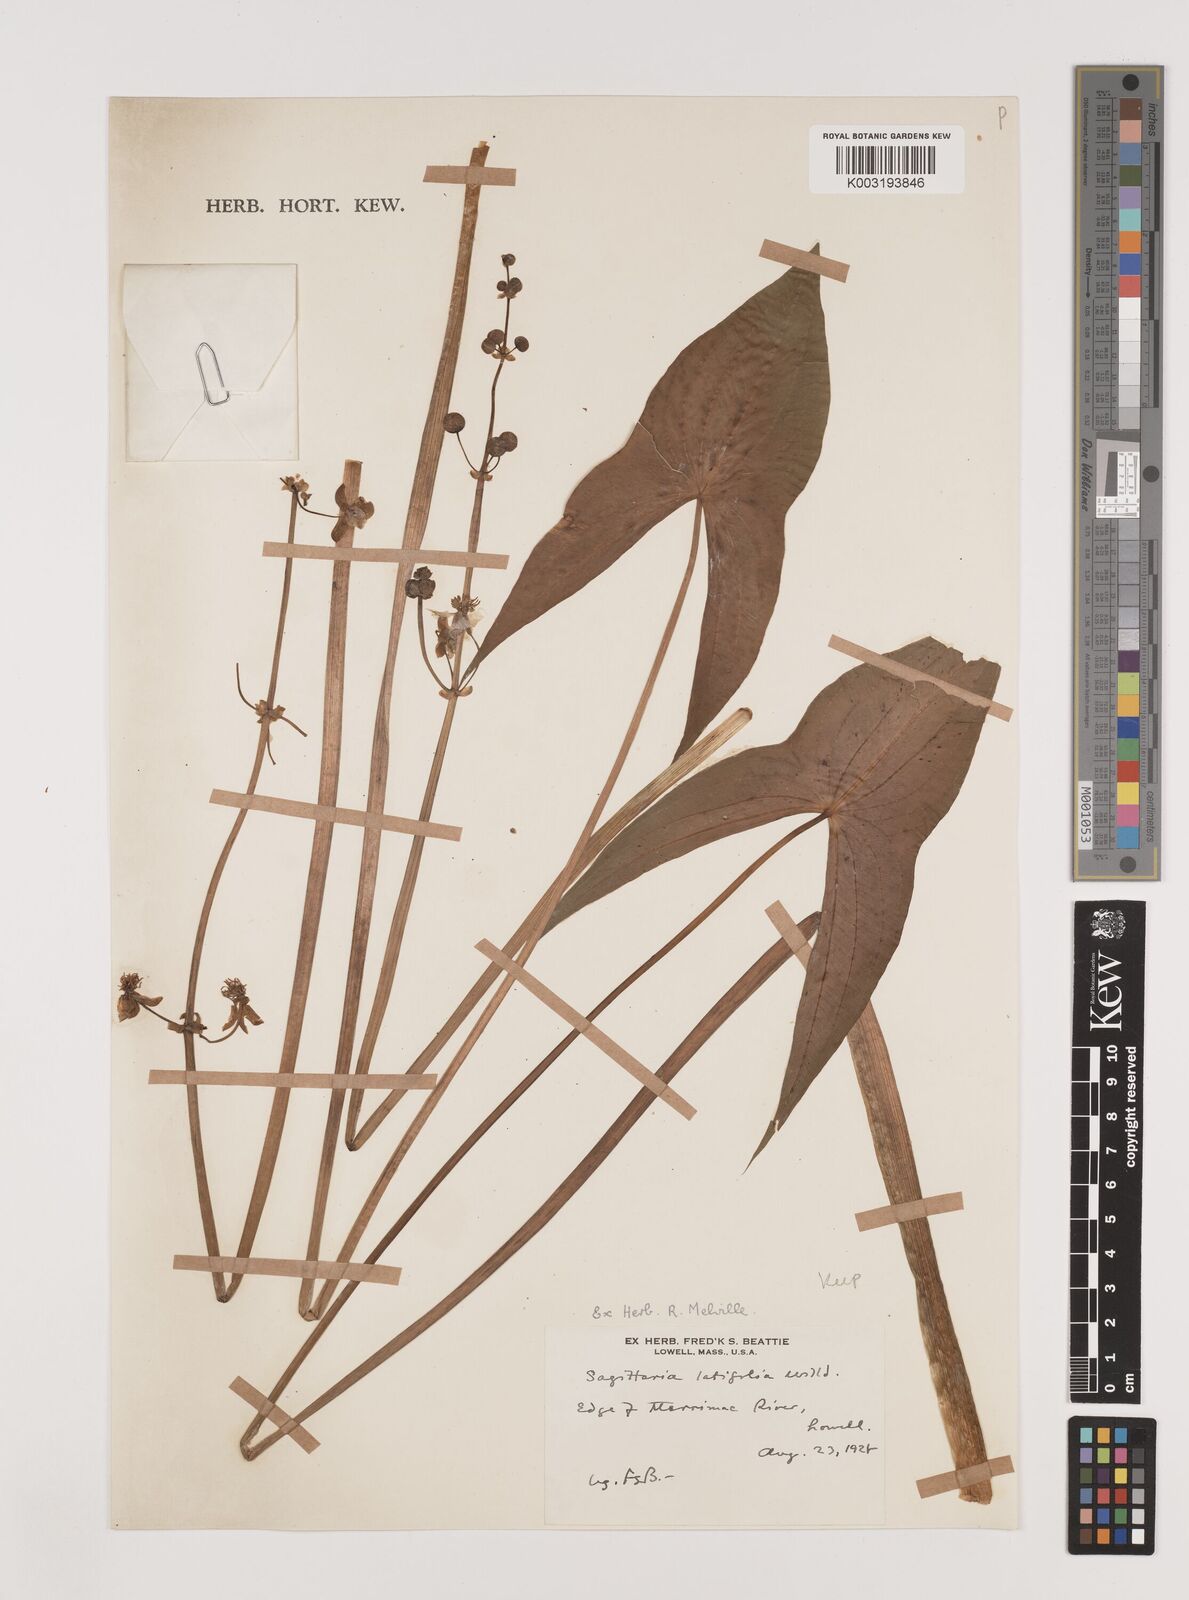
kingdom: Plantae
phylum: Tracheophyta
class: Liliopsida
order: Alismatales
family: Alismataceae
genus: Sagittaria
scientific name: Sagittaria latifolia
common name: Duck-potato
